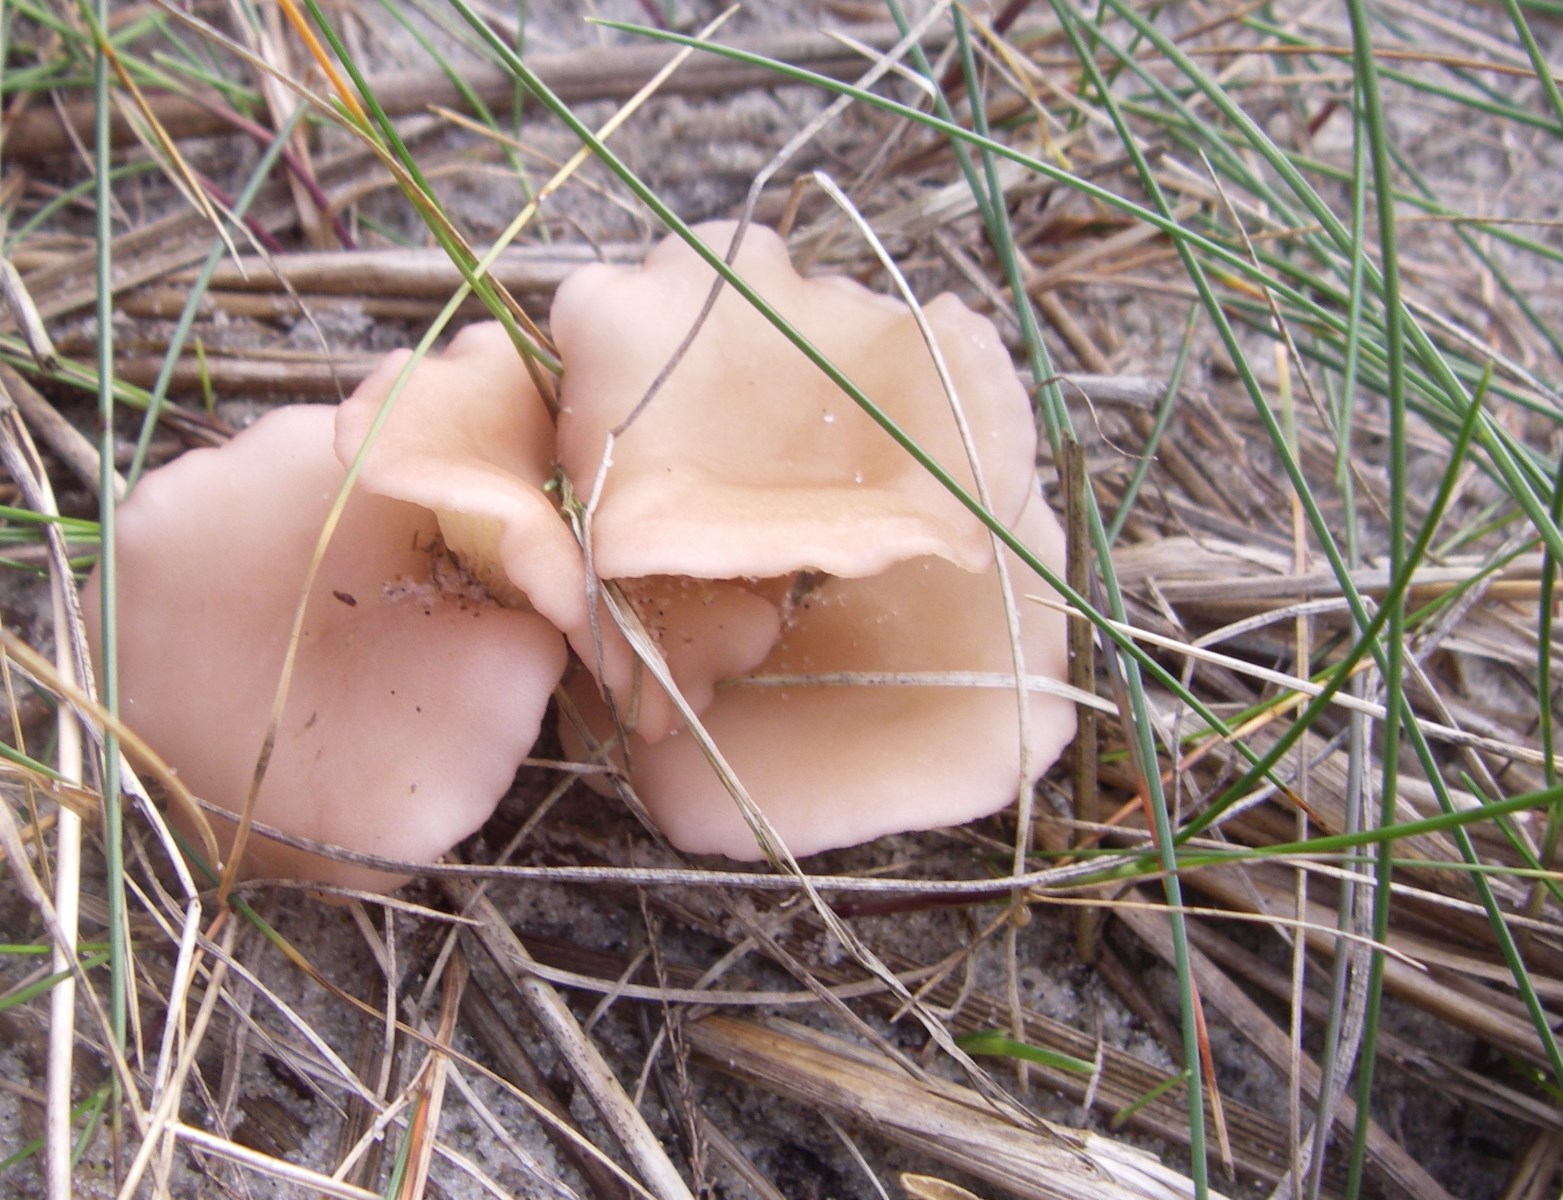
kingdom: Fungi
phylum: Basidiomycota
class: Agaricomycetes
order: Agaricales
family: Lyophyllaceae
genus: Calocybe
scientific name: Calocybe carnea
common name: rosa fagerhat
